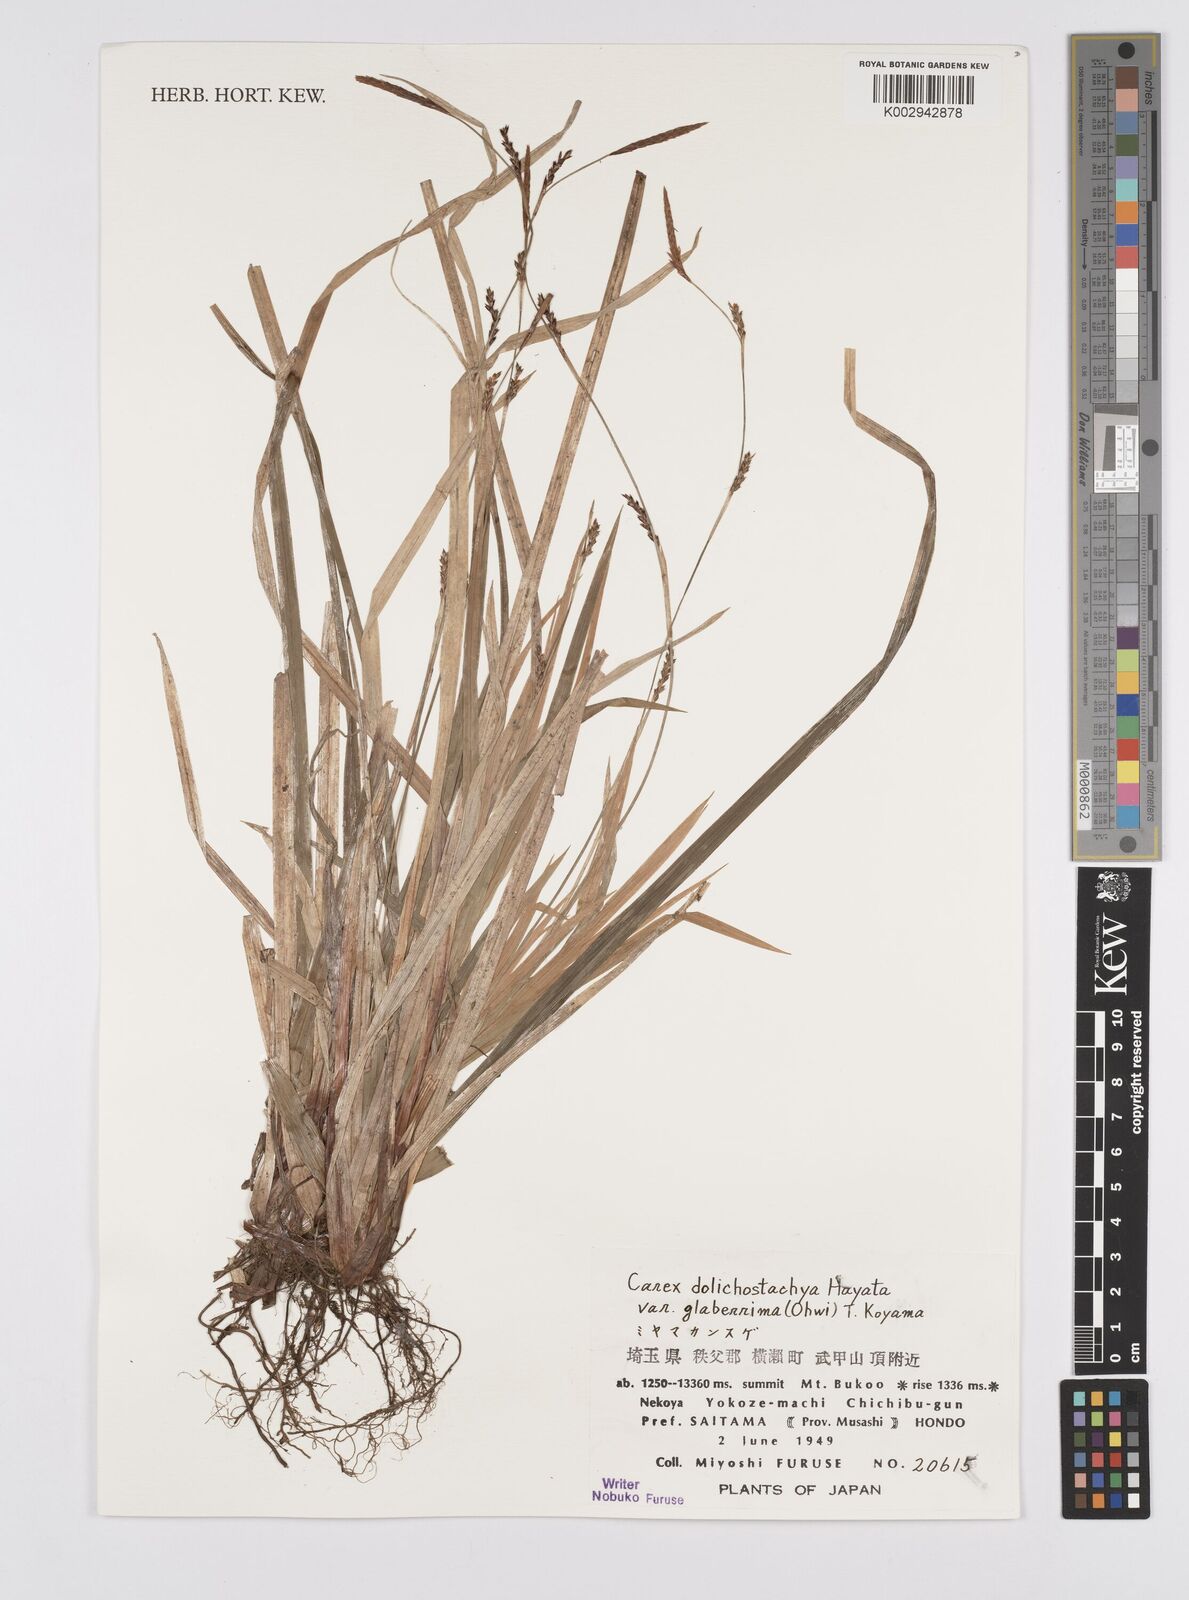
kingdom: Plantae
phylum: Tracheophyta
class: Liliopsida
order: Poales
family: Cyperaceae
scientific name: Cyperaceae
